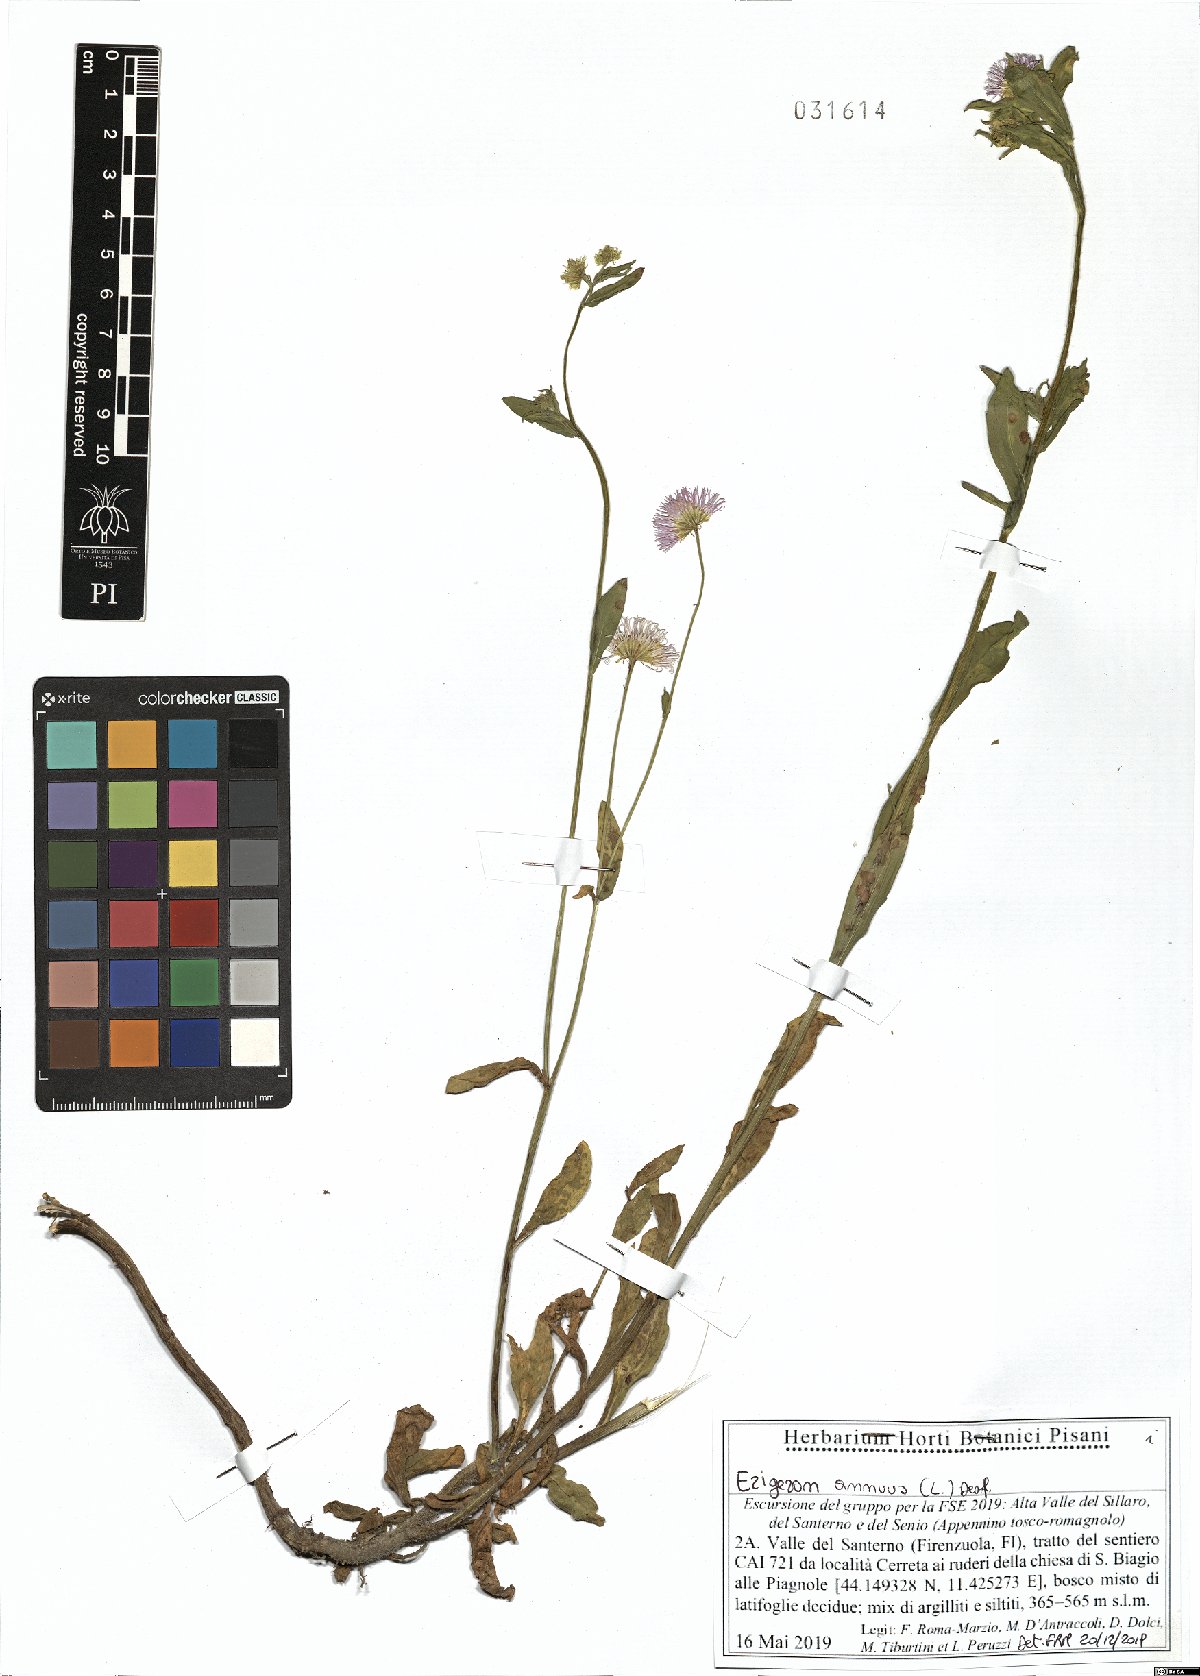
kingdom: Plantae
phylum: Tracheophyta
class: Magnoliopsida
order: Asterales
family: Asteraceae
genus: Erigeron
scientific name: Erigeron annuus
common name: Tall fleabane
